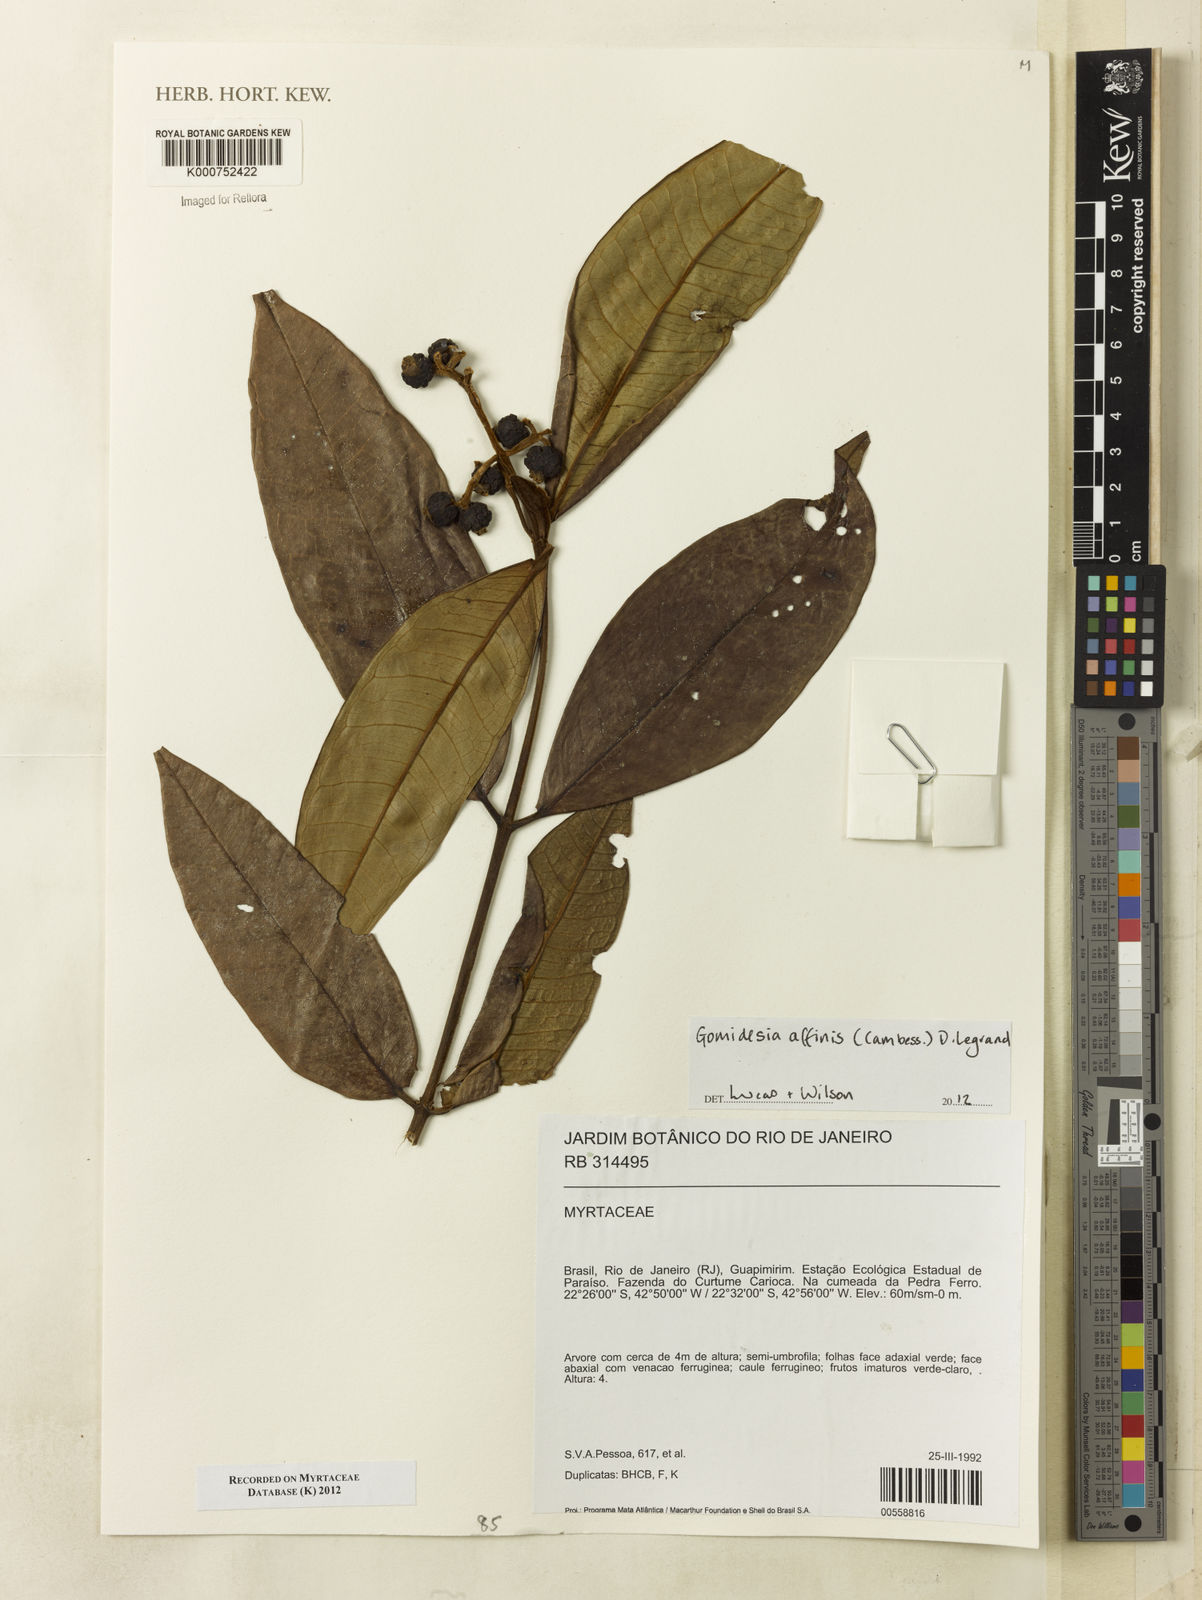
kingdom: Plantae
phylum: Tracheophyta
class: Magnoliopsida
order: Myrtales
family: Myrtaceae
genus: Myrcia
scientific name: Myrcia
